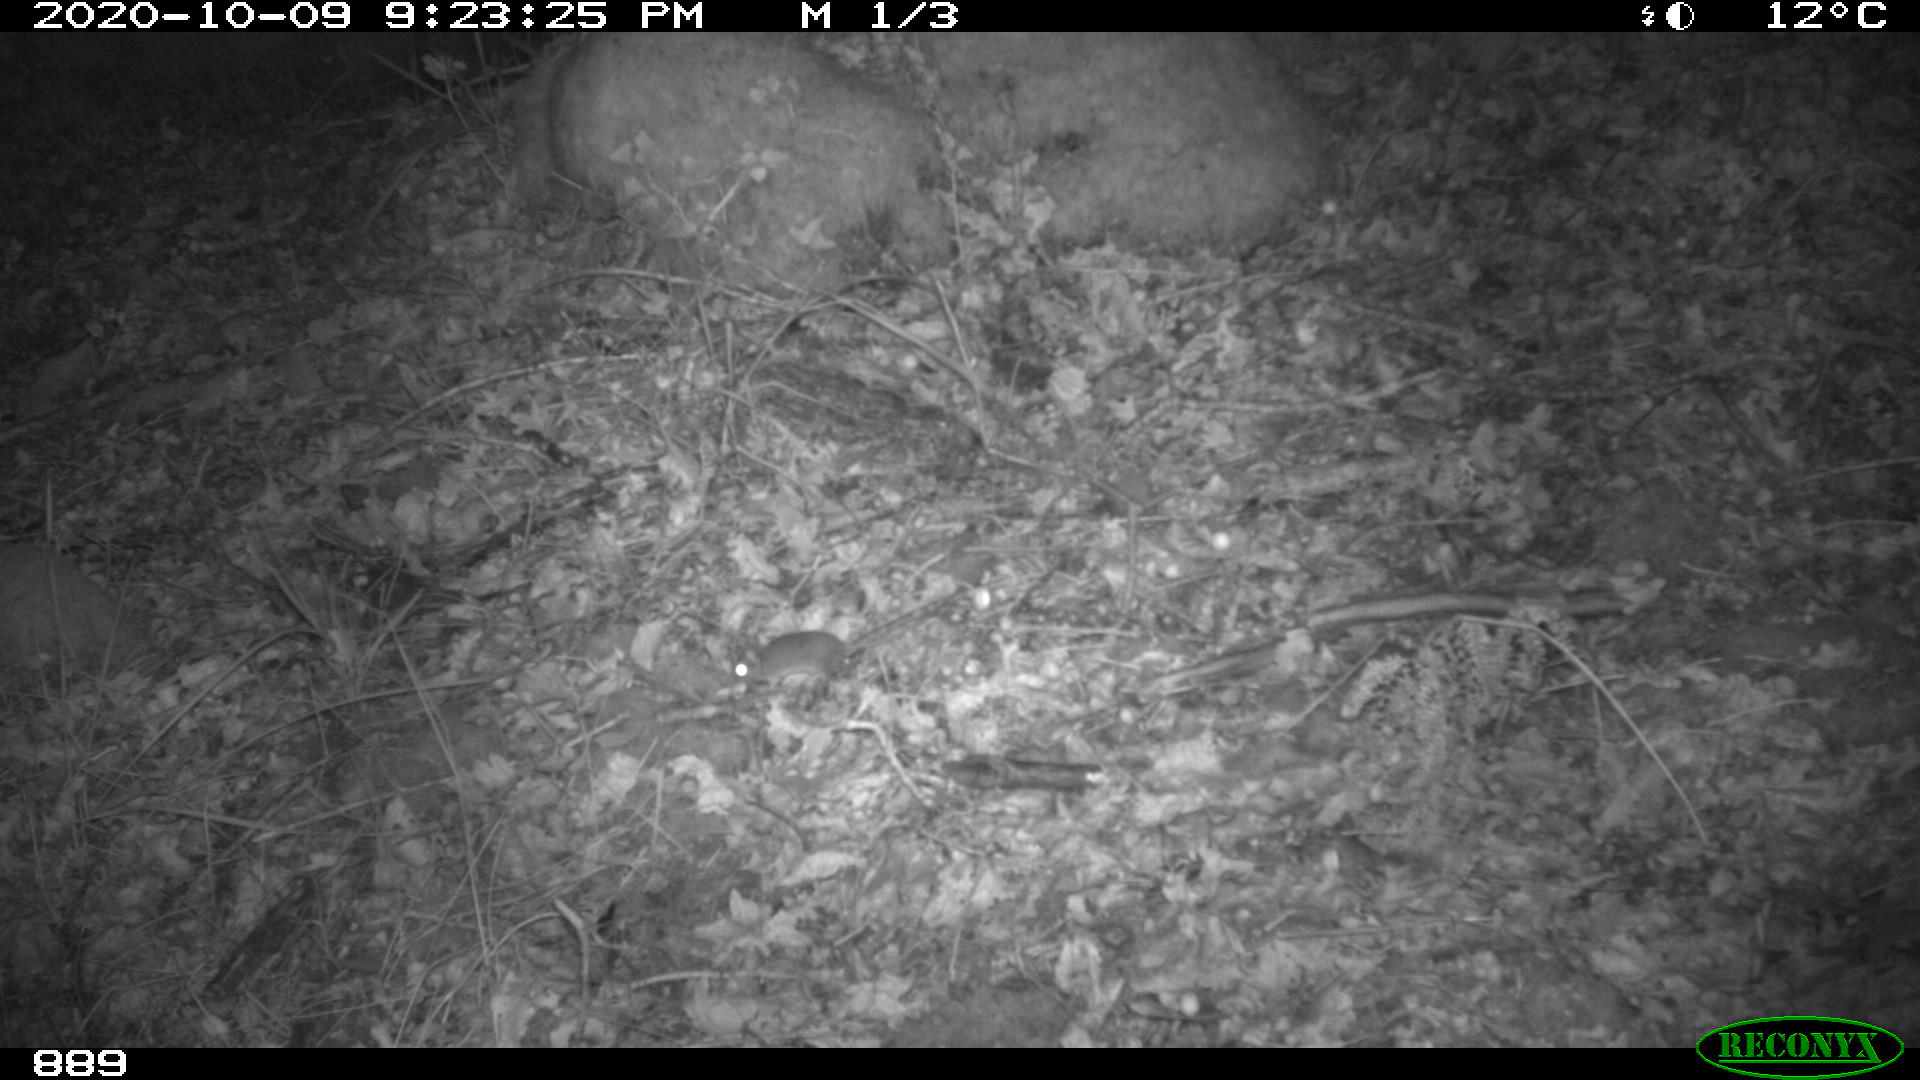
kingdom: Animalia
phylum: Chordata
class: Mammalia
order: Rodentia
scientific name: Rodentia
